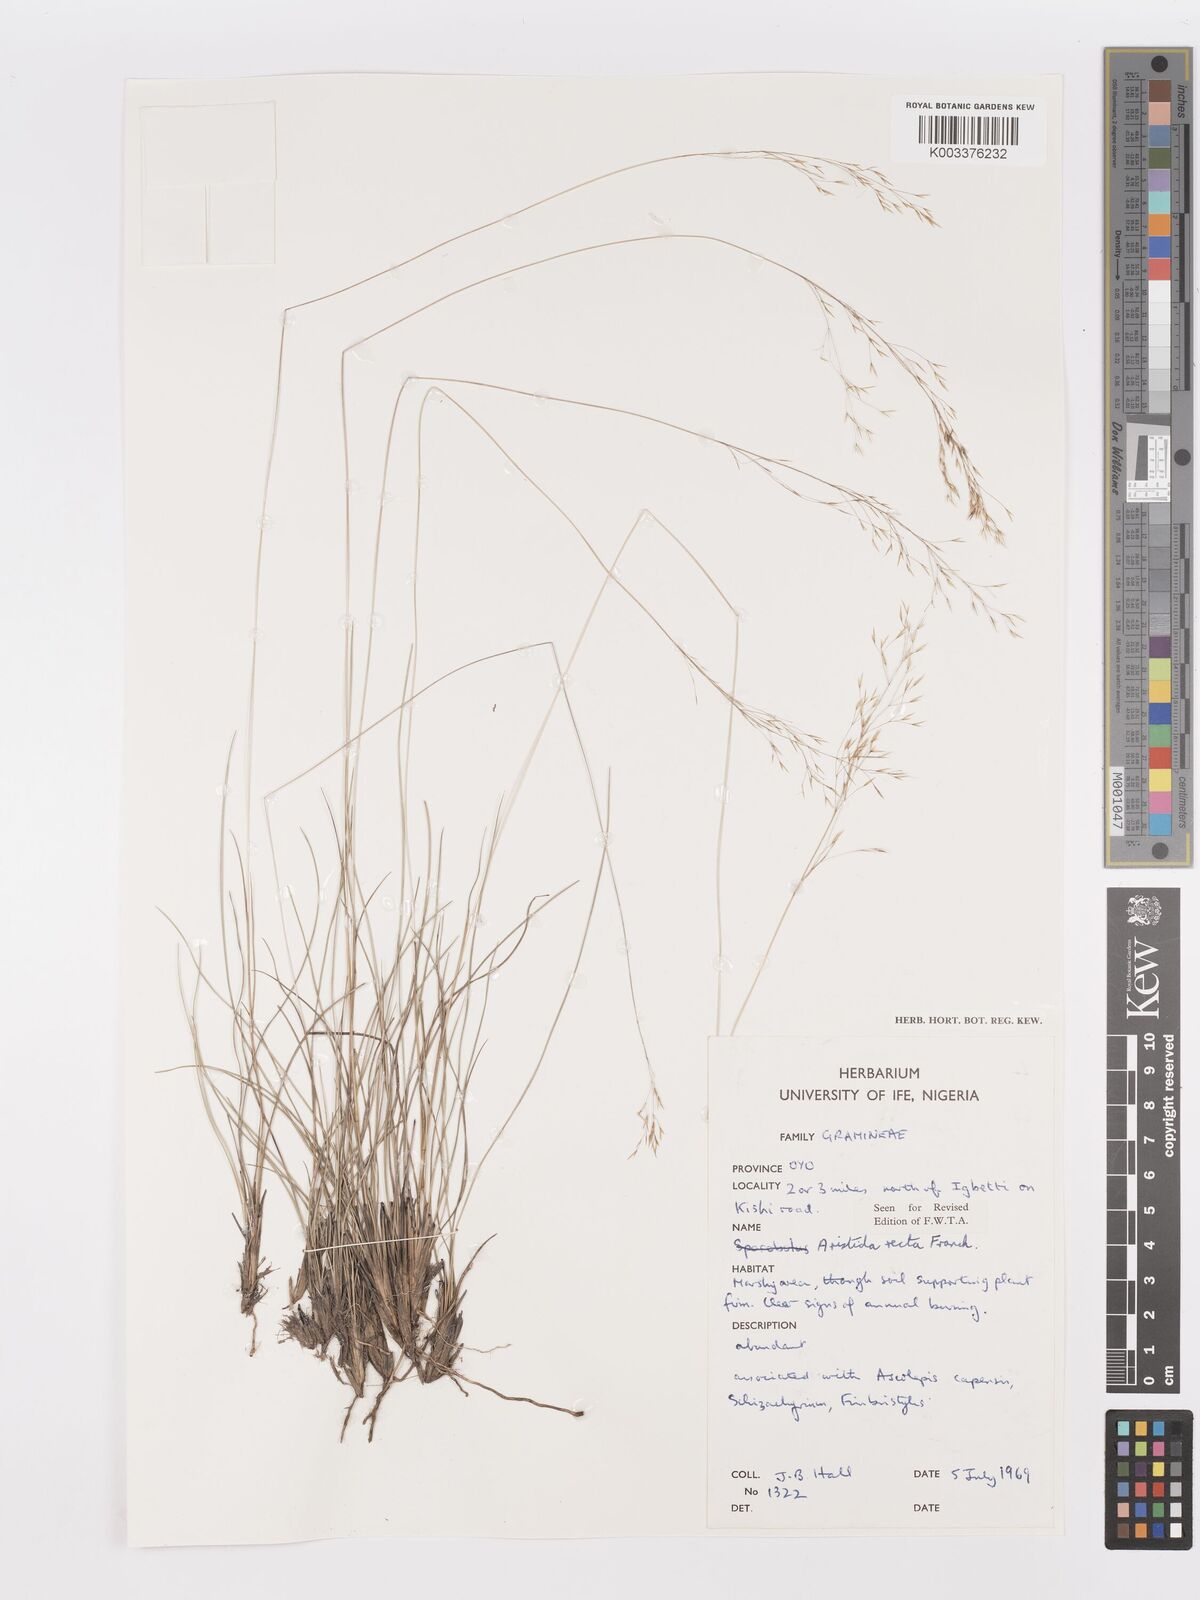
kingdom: Plantae
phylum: Tracheophyta
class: Liliopsida
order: Poales
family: Poaceae
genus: Aristida
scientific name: Aristida recta
